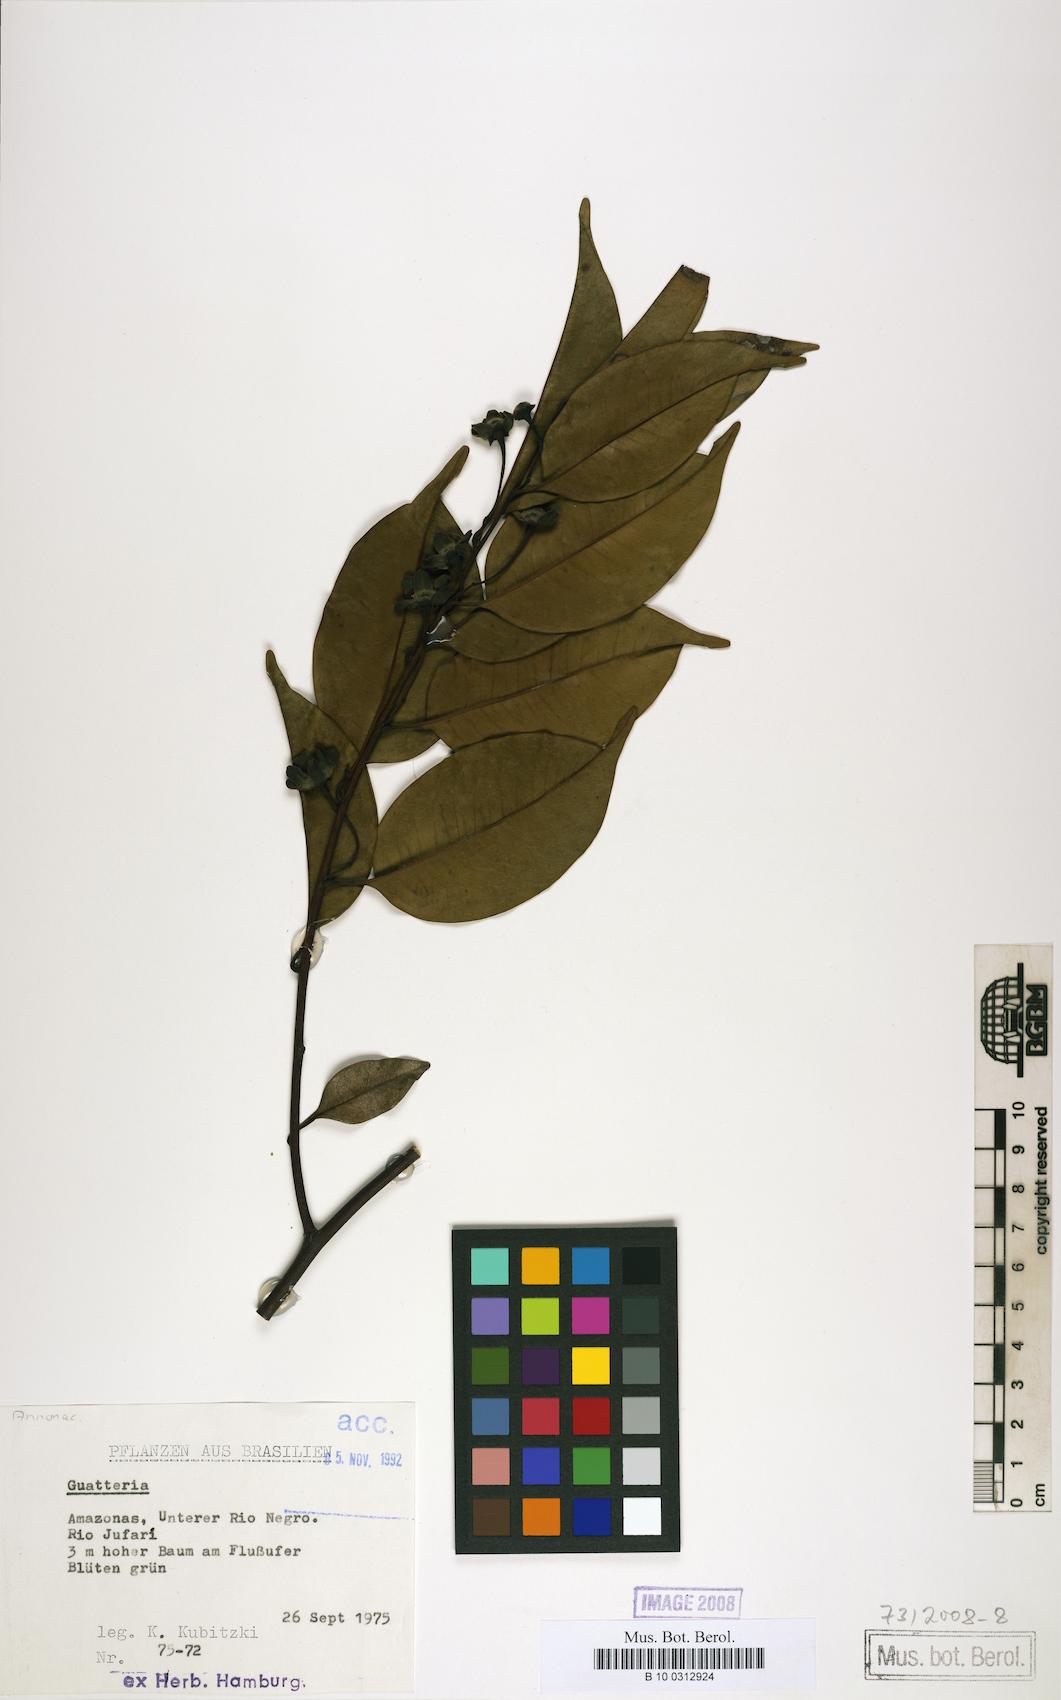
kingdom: Plantae
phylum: Tracheophyta
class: Magnoliopsida
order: Magnoliales
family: Annonaceae
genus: Guatteria
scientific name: Guatteria maypurensis
